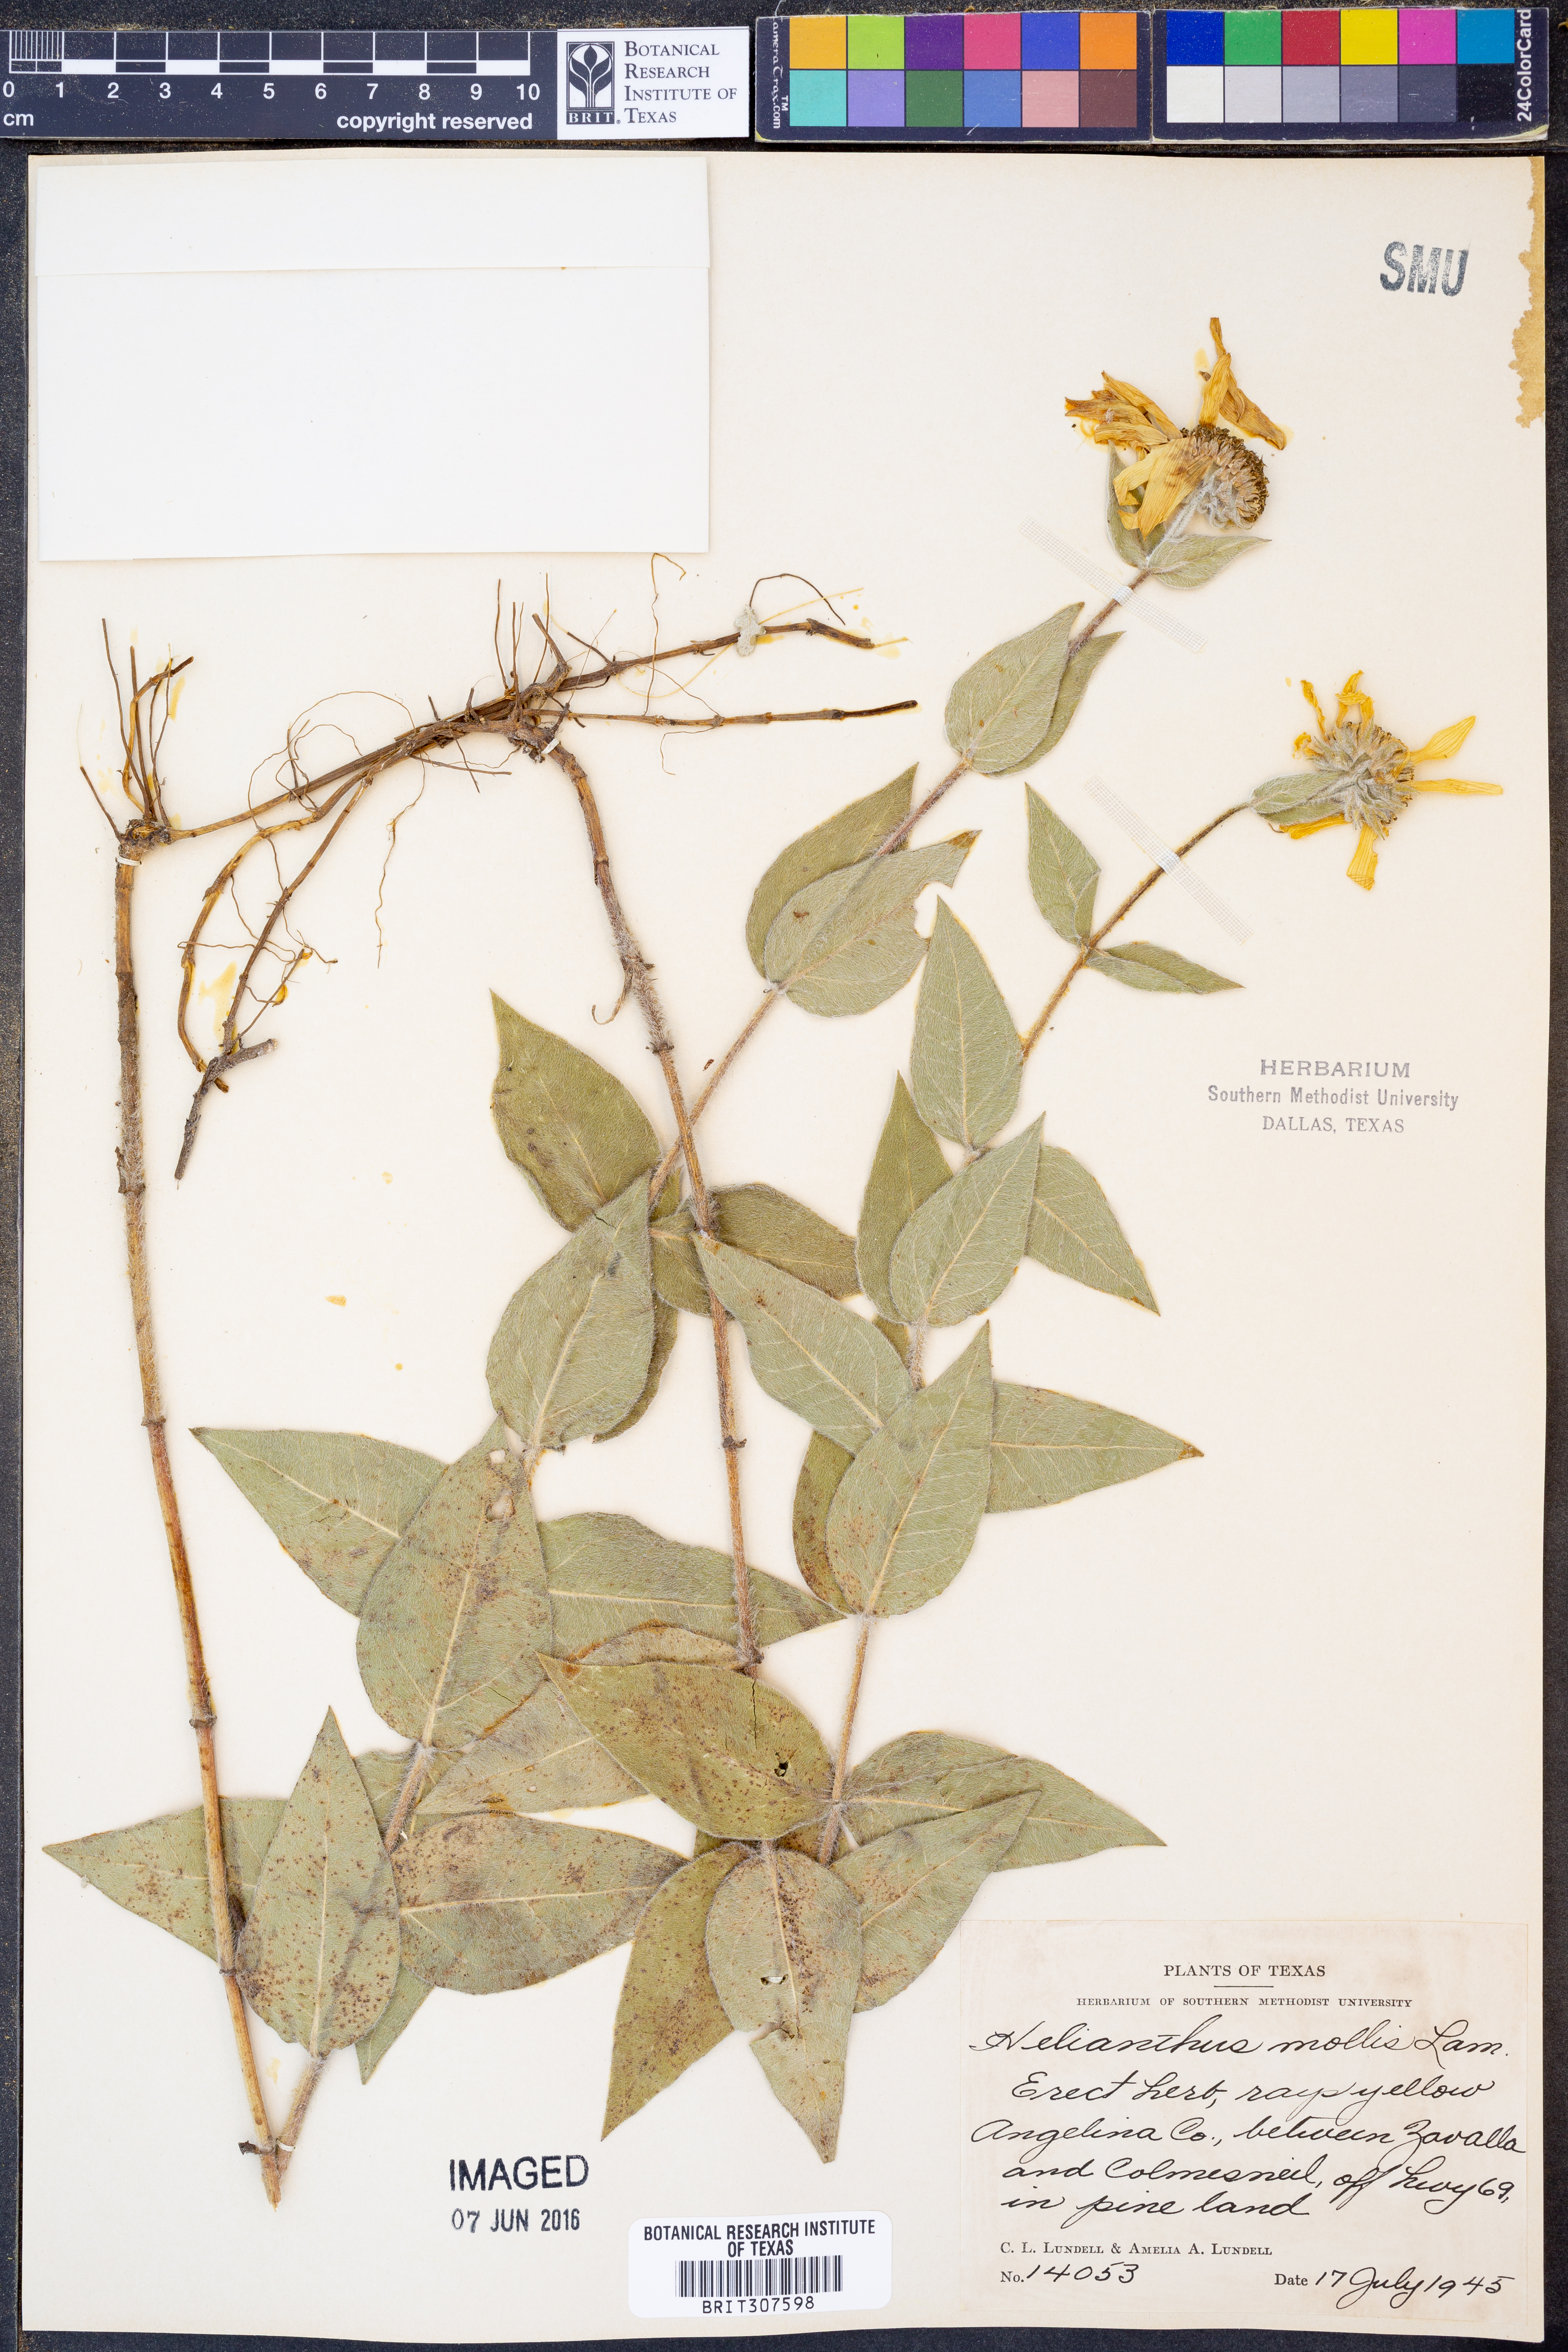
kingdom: Plantae
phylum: Tracheophyta
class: Magnoliopsida
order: Asterales
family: Asteraceae
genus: Helianthus
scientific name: Helianthus mollis
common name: Ashy sunflower
